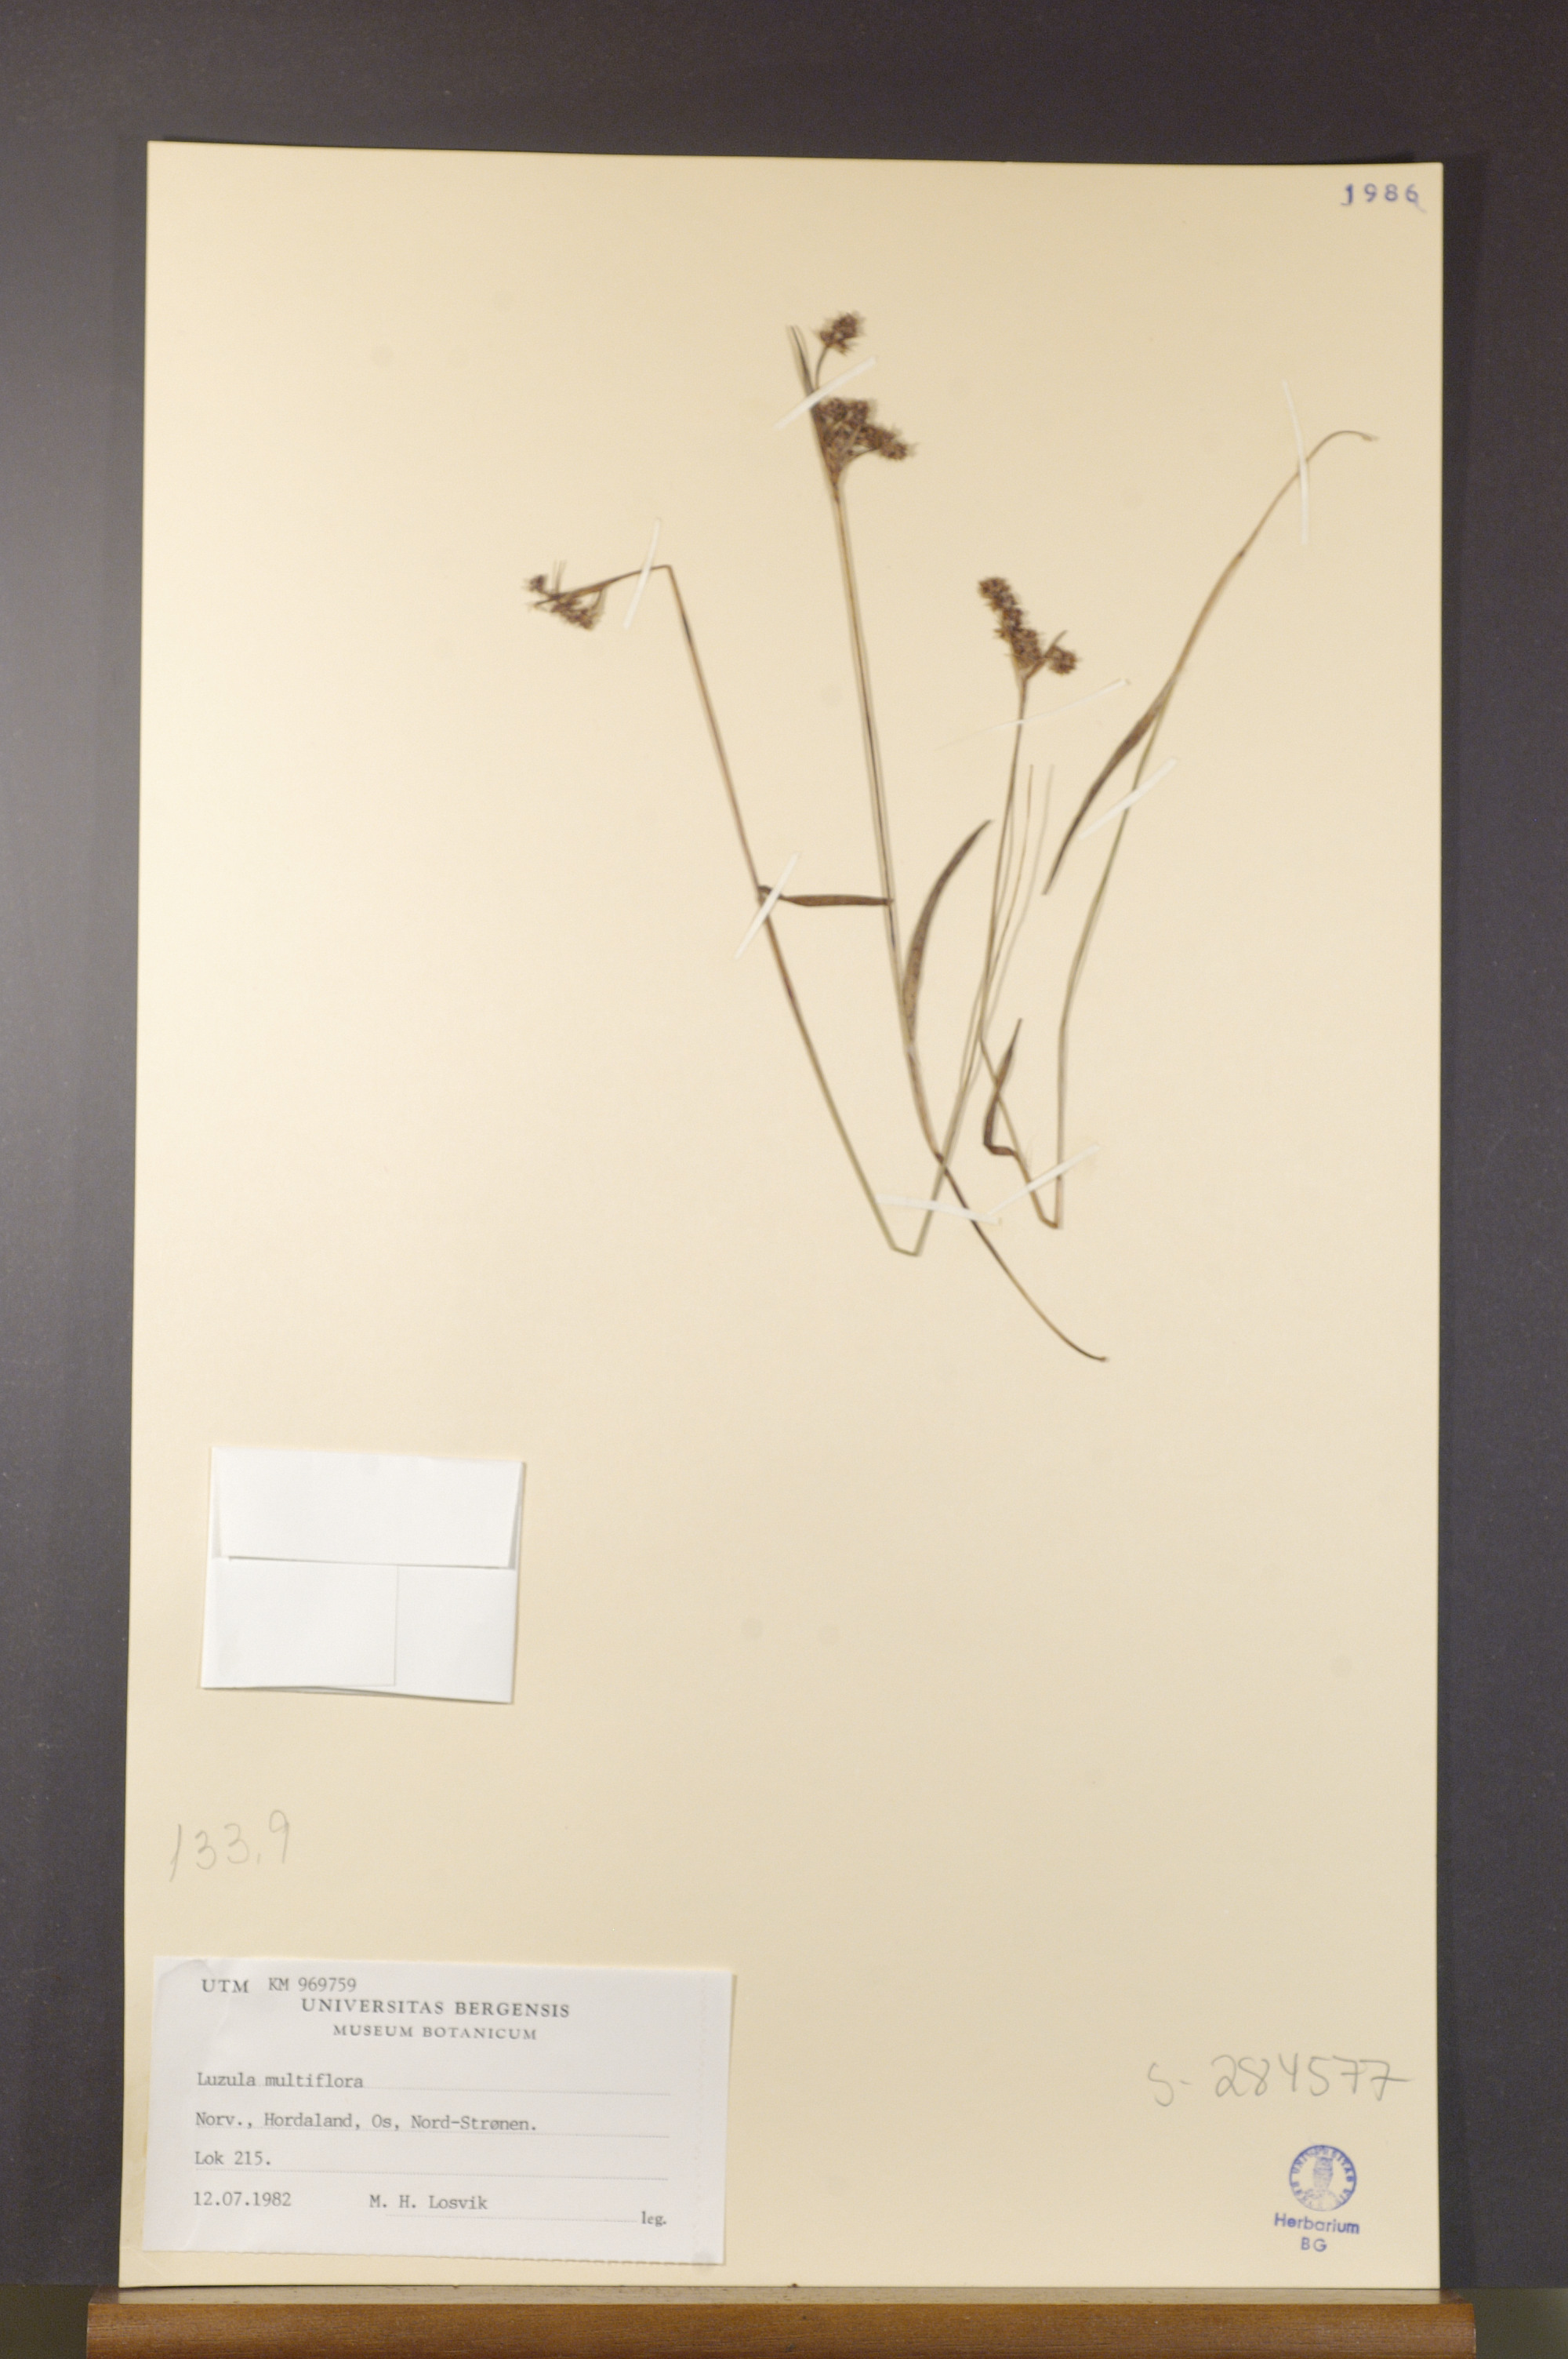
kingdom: Plantae
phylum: Tracheophyta
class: Liliopsida
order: Poales
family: Juncaceae
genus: Luzula
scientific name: Luzula multiflora
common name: Heath wood-rush
